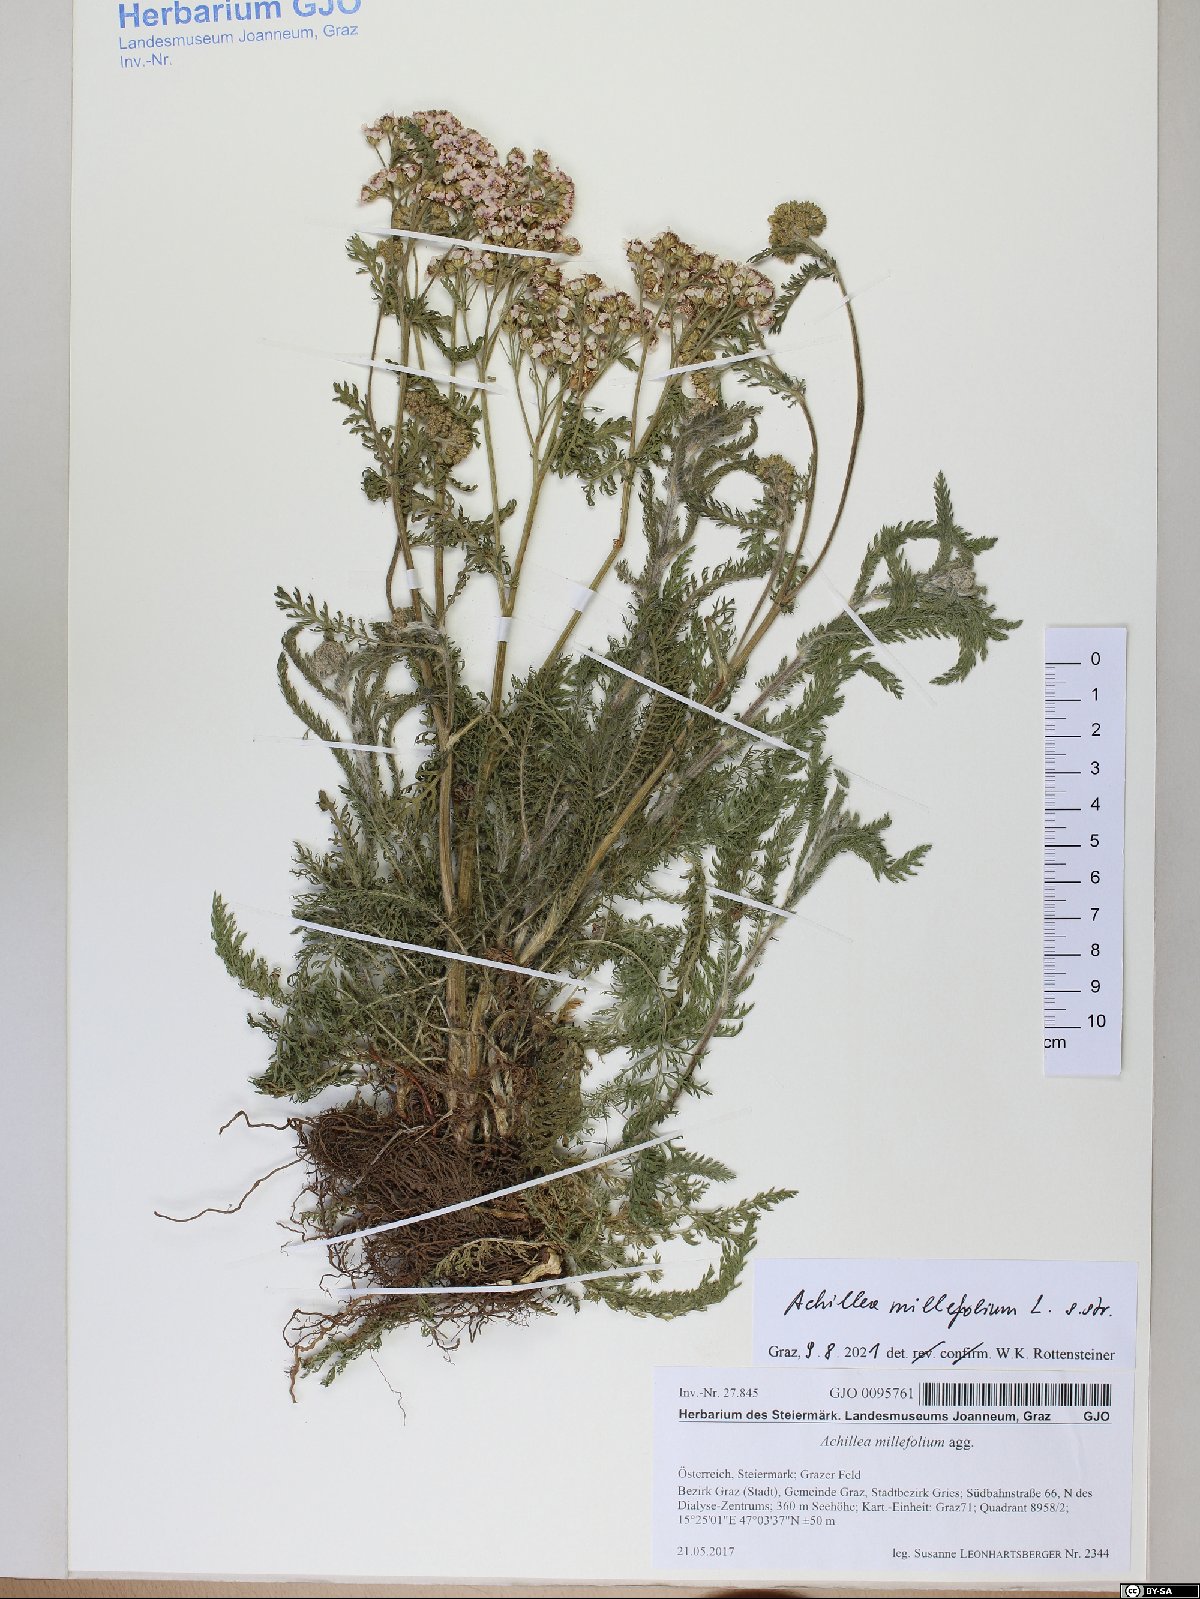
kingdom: Plantae
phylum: Tracheophyta
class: Magnoliopsida
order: Asterales
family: Asteraceae
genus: Achillea
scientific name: Achillea millefolium
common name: Yarrow
